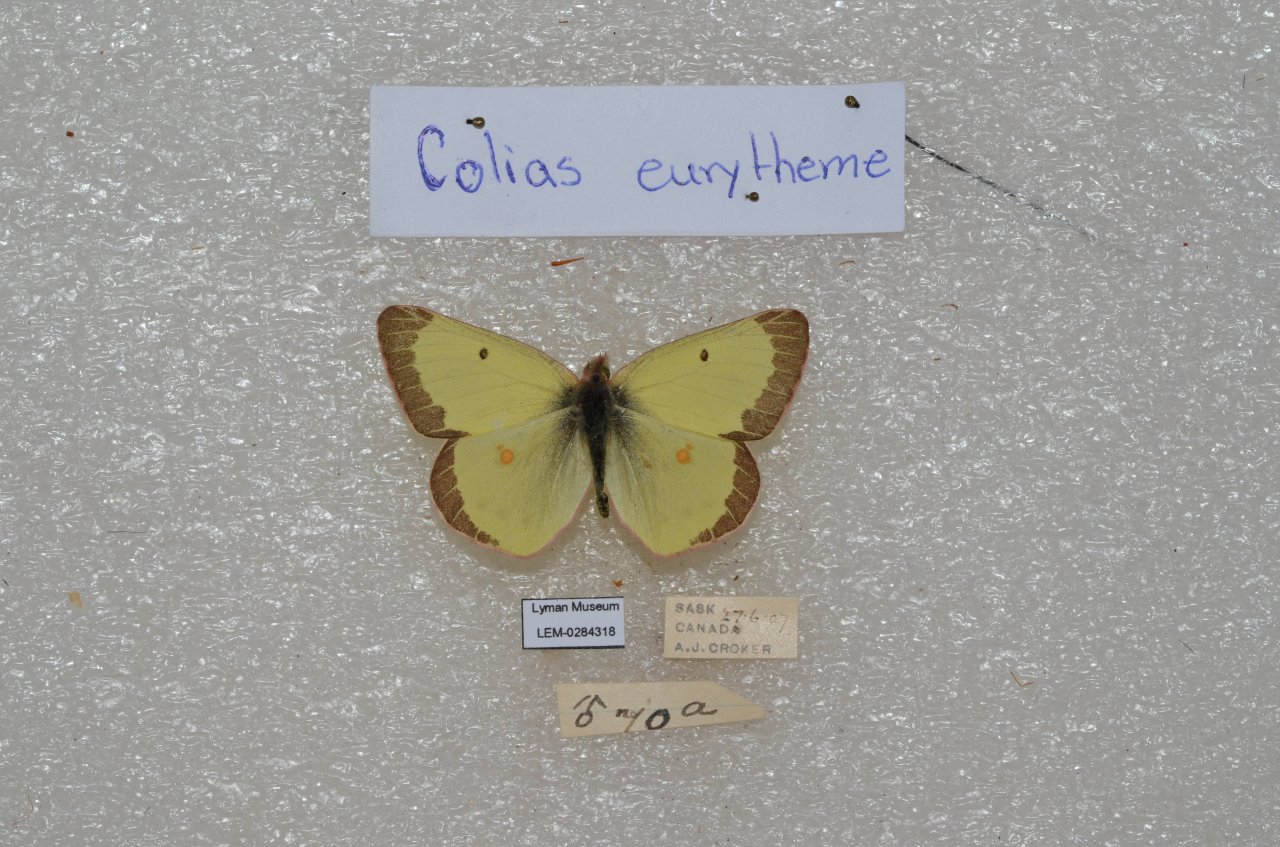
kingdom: Animalia
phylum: Arthropoda
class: Insecta
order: Lepidoptera
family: Pieridae
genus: Colias
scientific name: Colias philodice
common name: Clouded Sulphur
